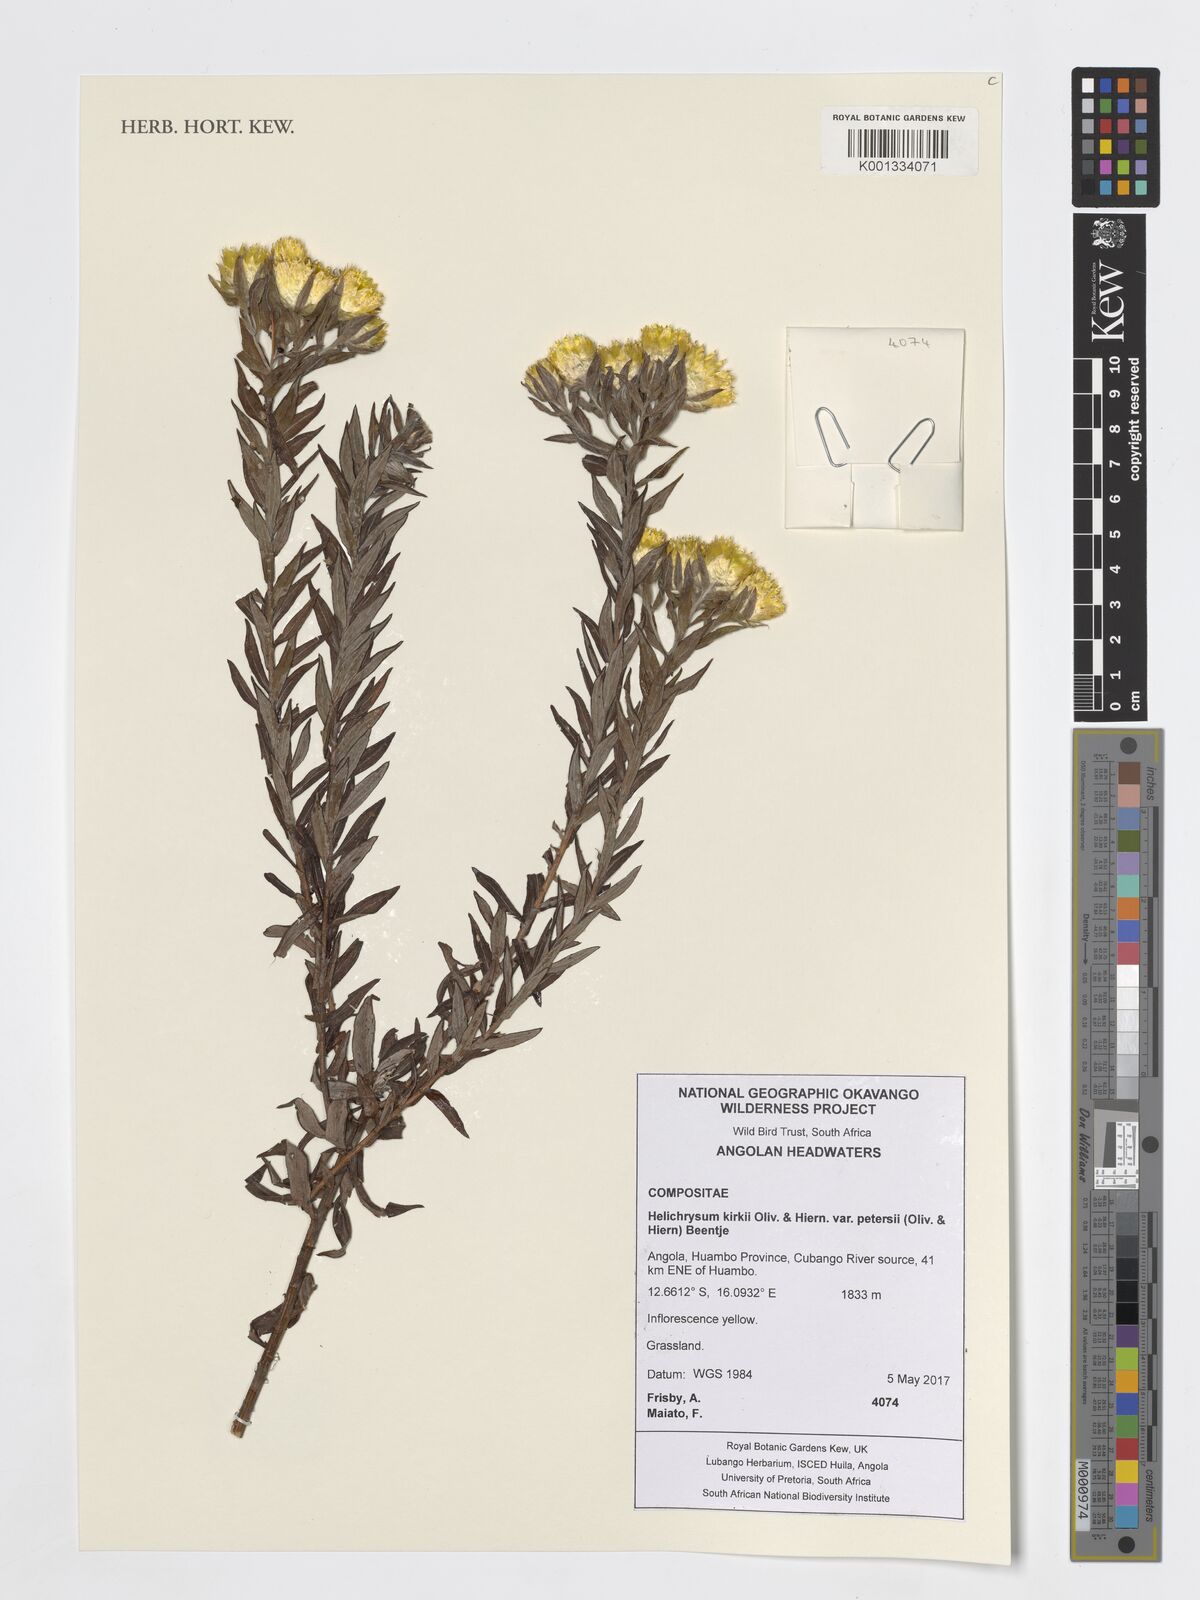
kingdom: Plantae
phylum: Tracheophyta
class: Magnoliopsida
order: Asterales
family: Asteraceae
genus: Helichrysum
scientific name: Helichrysum kirkii
